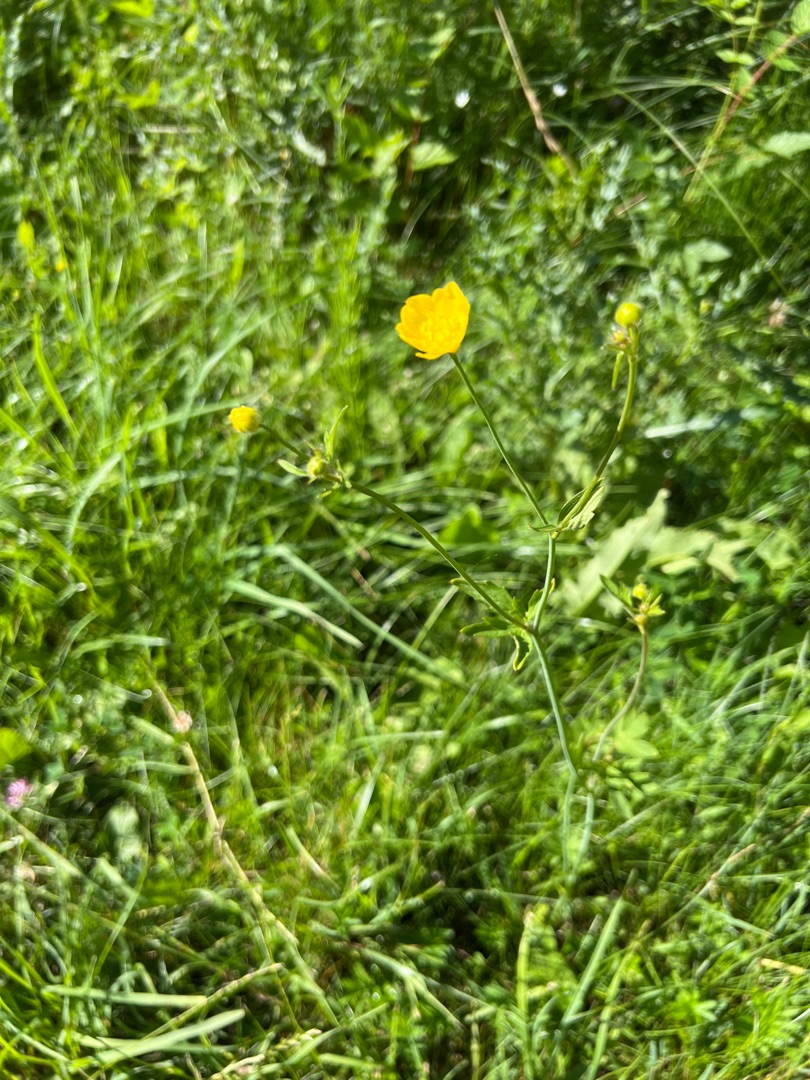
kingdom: Plantae
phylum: Tracheophyta
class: Magnoliopsida
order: Ranunculales
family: Ranunculaceae
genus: Ranunculus
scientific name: Ranunculus acris
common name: Bidende ranunkel
